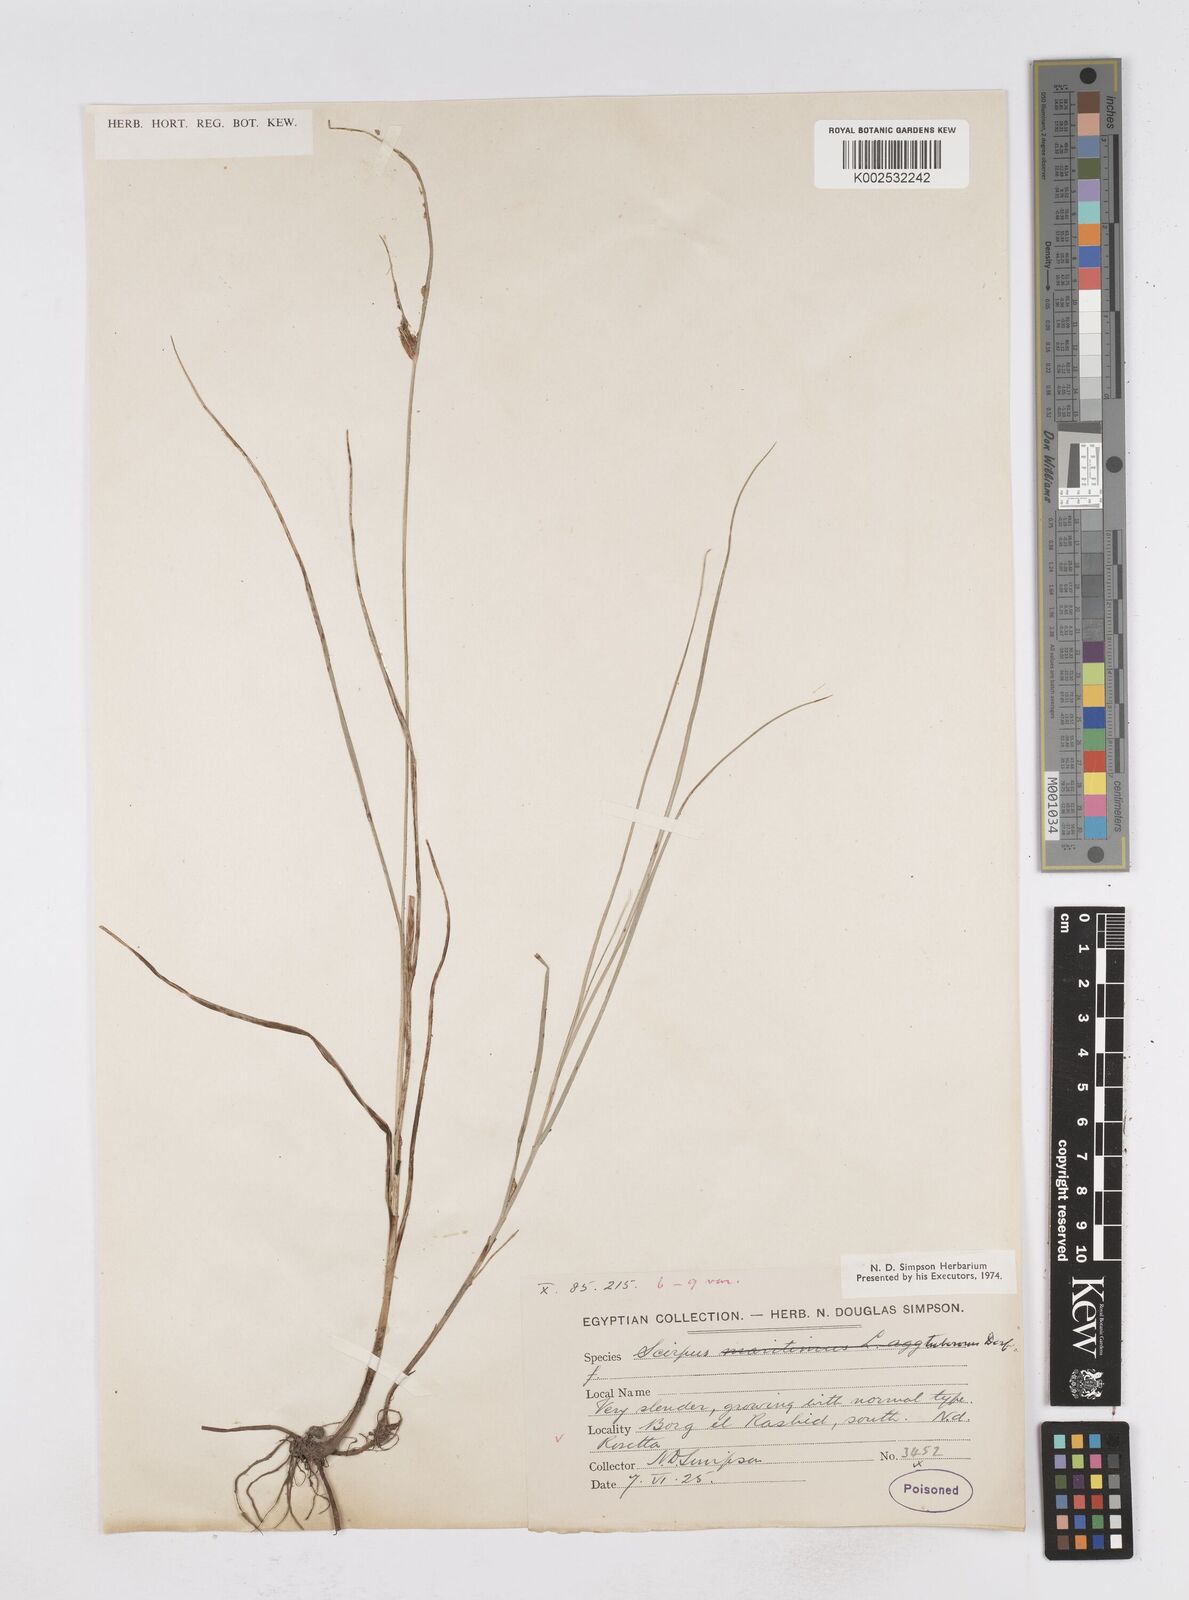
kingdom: Plantae
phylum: Tracheophyta
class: Liliopsida
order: Poales
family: Cyperaceae
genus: Bolboschoenus
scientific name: Bolboschoenus maritimus
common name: Sea club-rush
